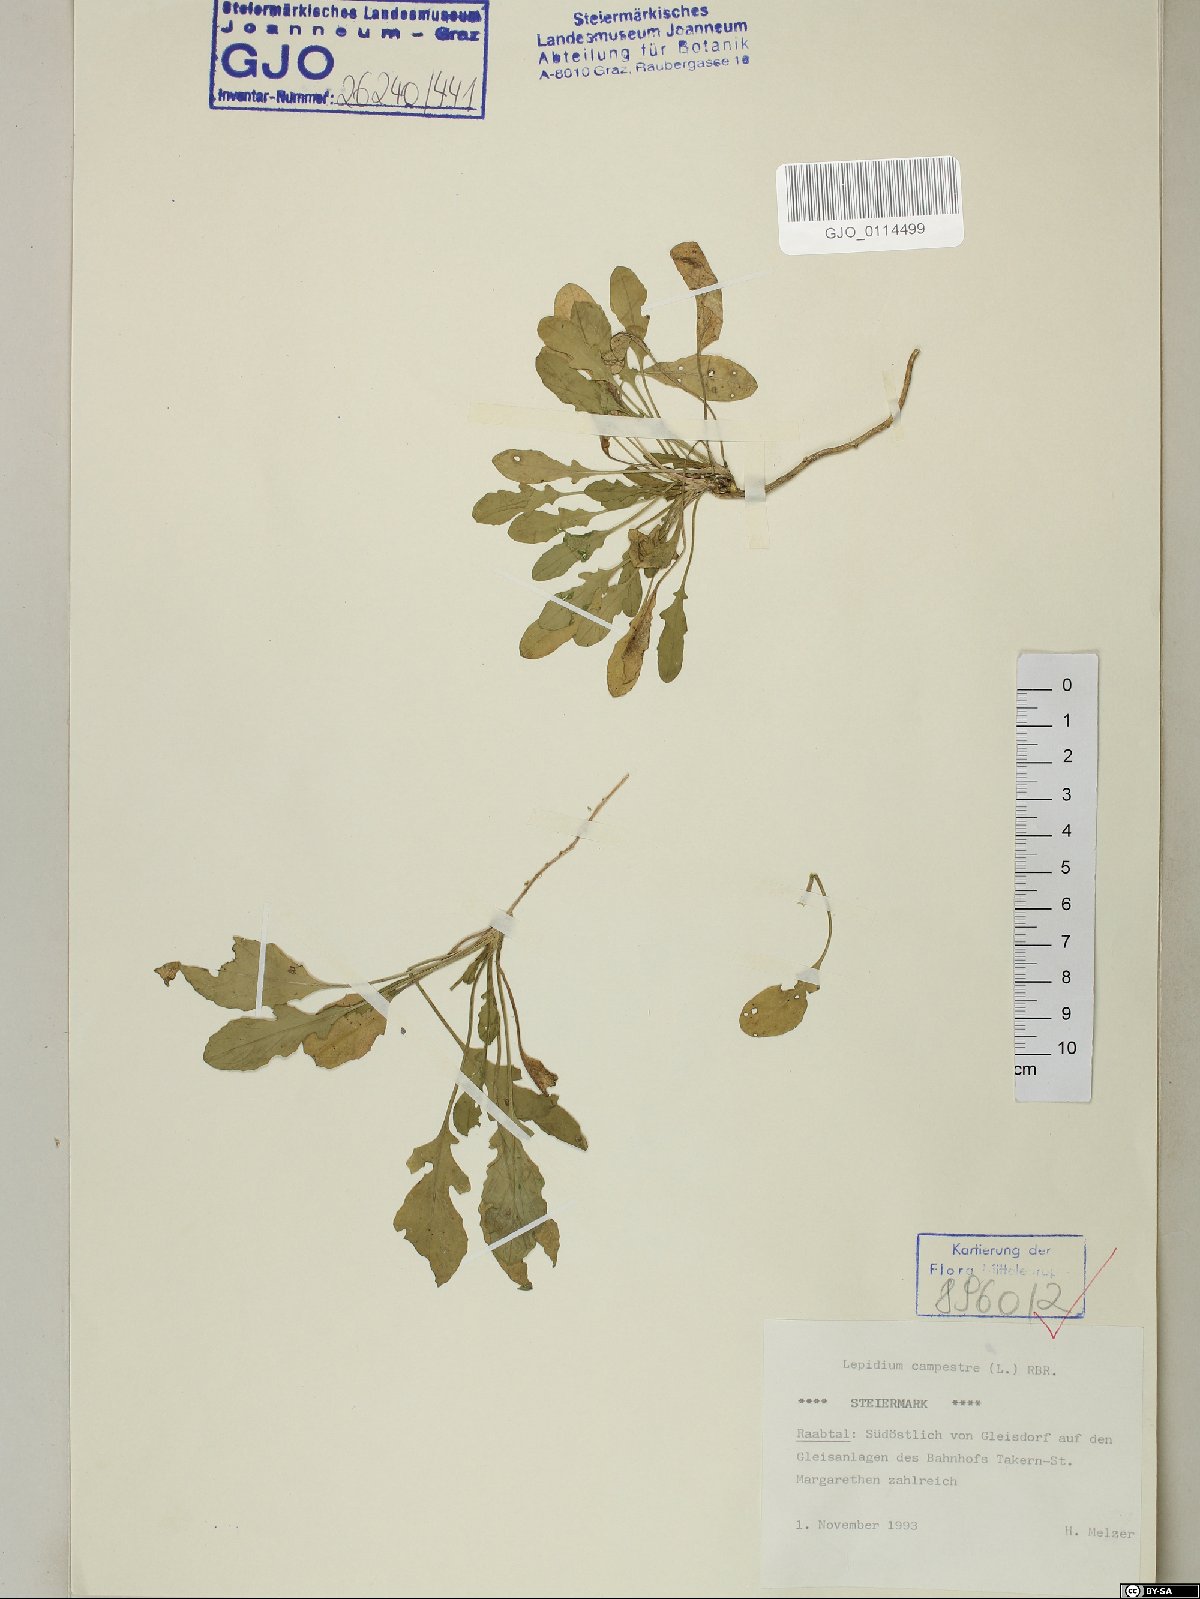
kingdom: Plantae
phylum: Tracheophyta
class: Magnoliopsida
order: Brassicales
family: Brassicaceae
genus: Lepidium
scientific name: Lepidium campestre
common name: Field pepperwort
